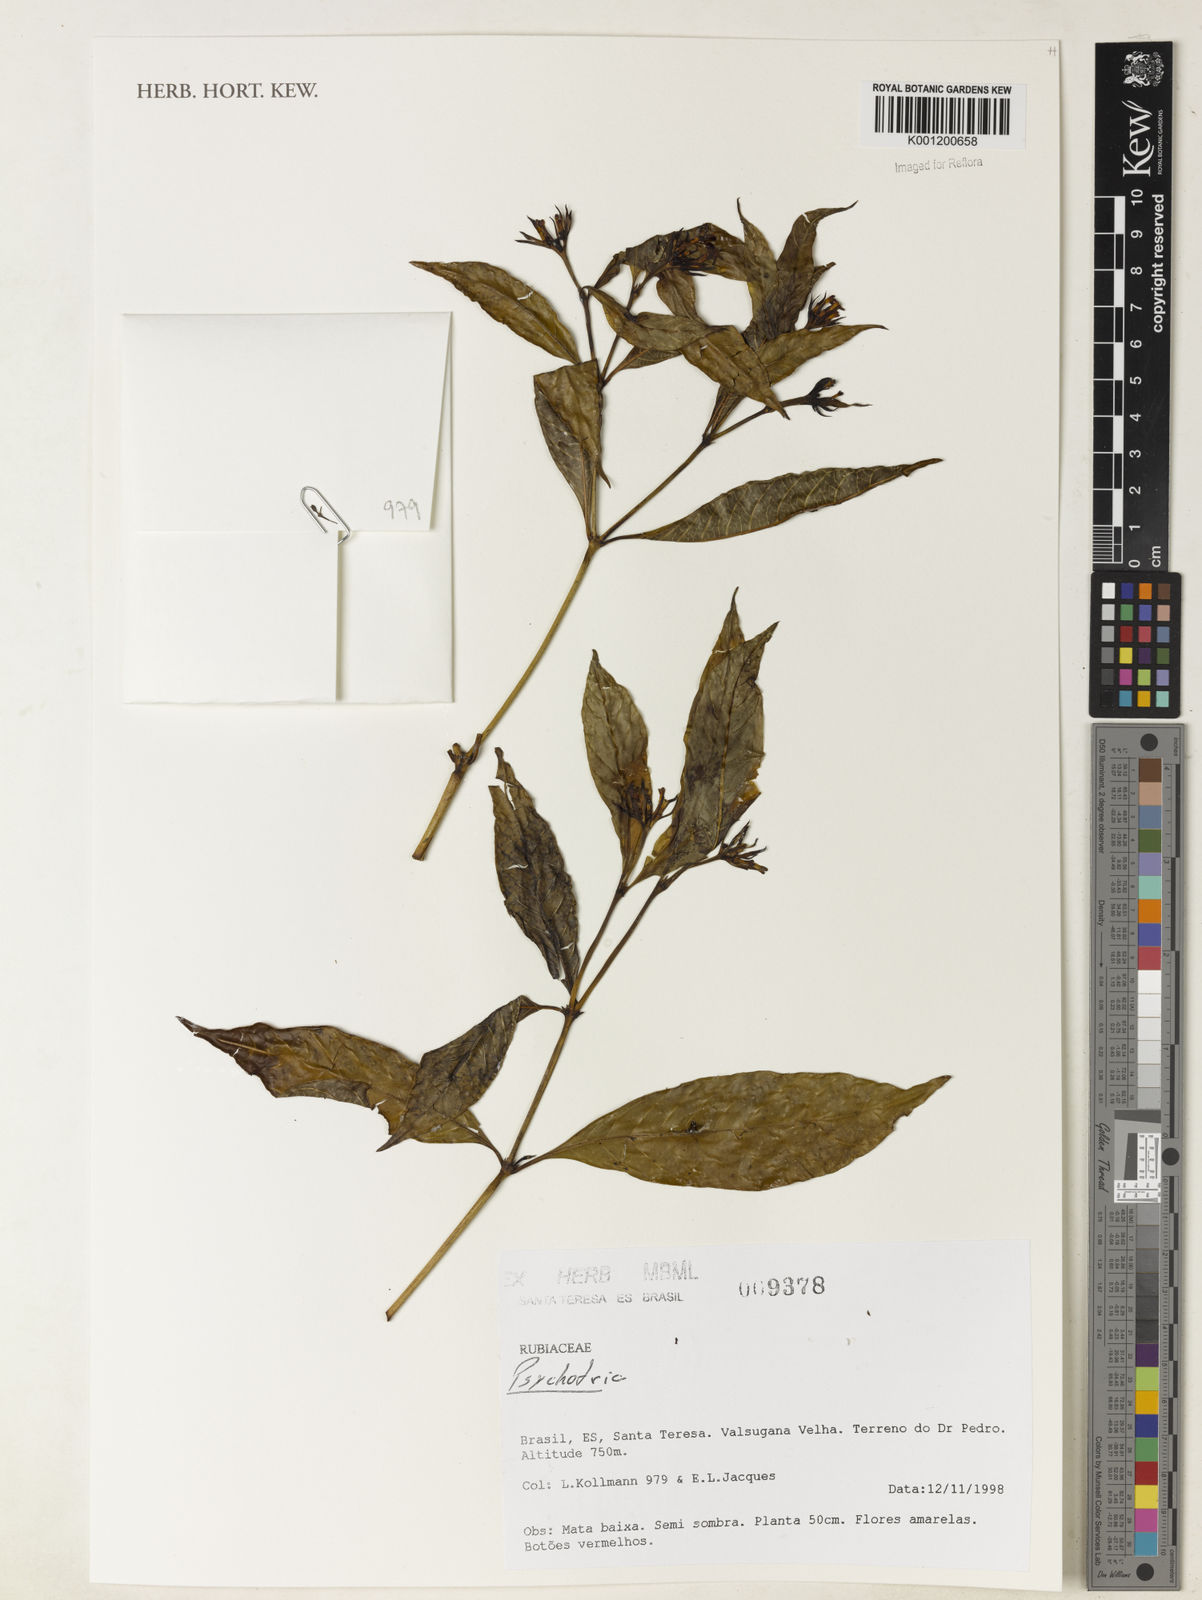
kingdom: Plantae
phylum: Tracheophyta
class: Magnoliopsida
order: Gentianales
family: Rubiaceae
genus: Psychotria
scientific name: Psychotria
